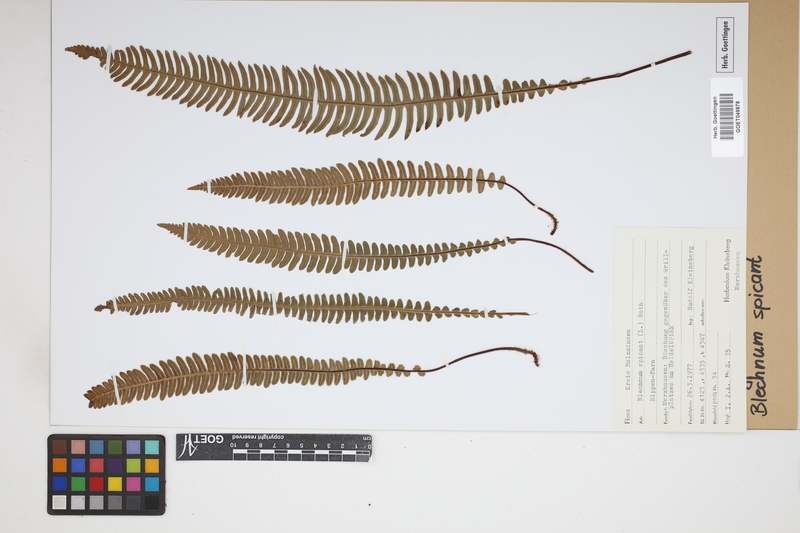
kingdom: Plantae
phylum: Tracheophyta
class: Polypodiopsida
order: Polypodiales
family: Blechnaceae
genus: Struthiopteris
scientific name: Struthiopteris spicant
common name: Deer fern
